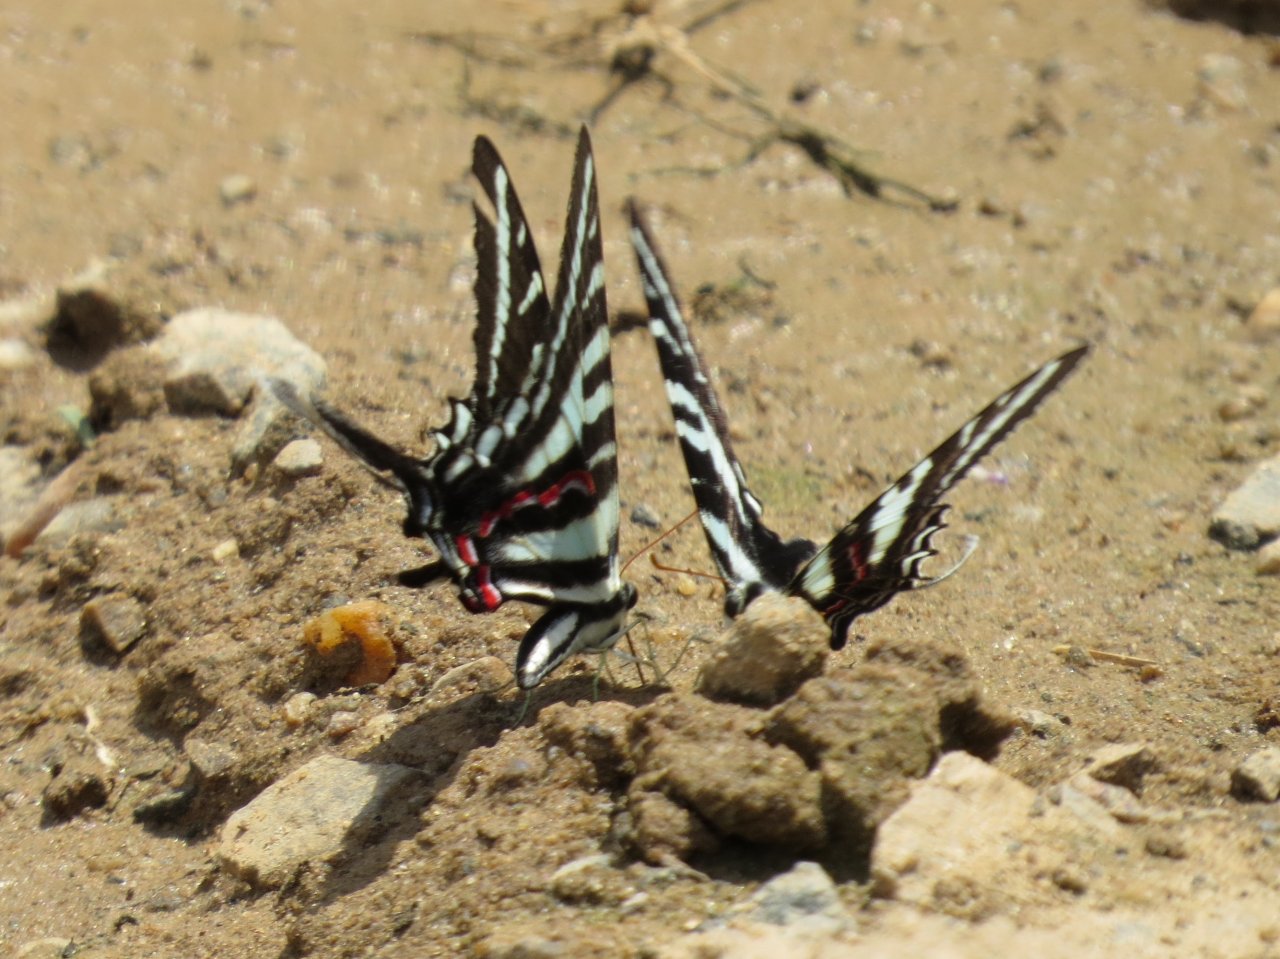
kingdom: Animalia
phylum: Arthropoda
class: Insecta
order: Lepidoptera
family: Papilionidae
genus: Protographium
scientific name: Protographium marcellus
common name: Zebra Swallowtail
